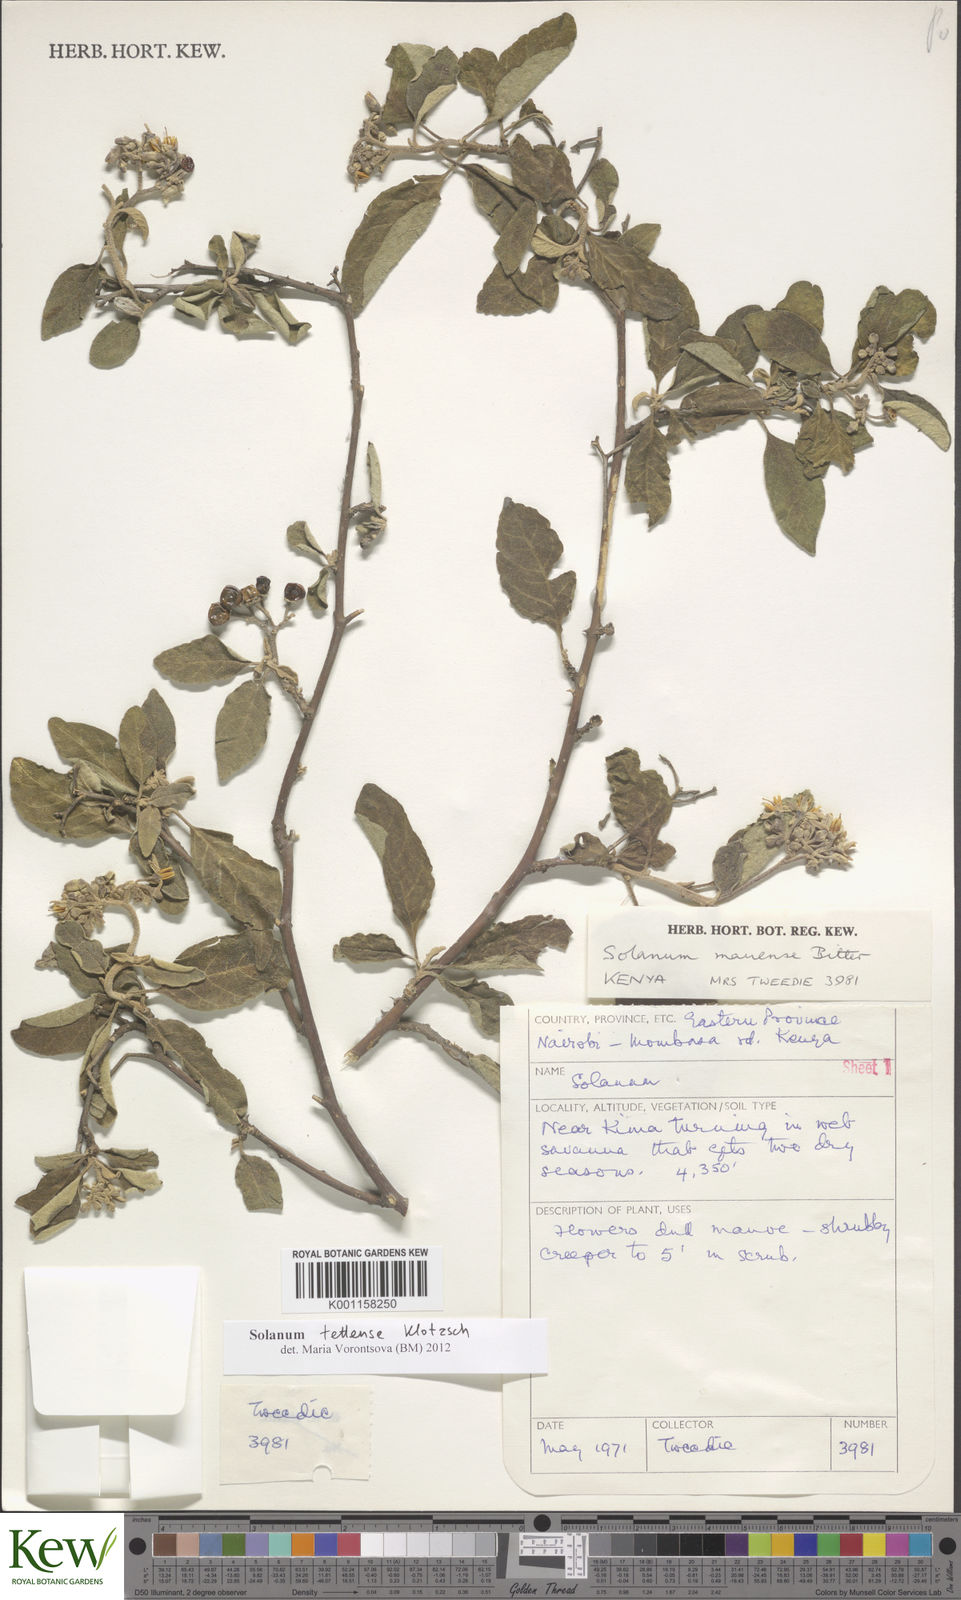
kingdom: Plantae
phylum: Tracheophyta
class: Magnoliopsida
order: Solanales
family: Solanaceae
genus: Solanum
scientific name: Solanum tettense
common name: Mozambique bitter apple
